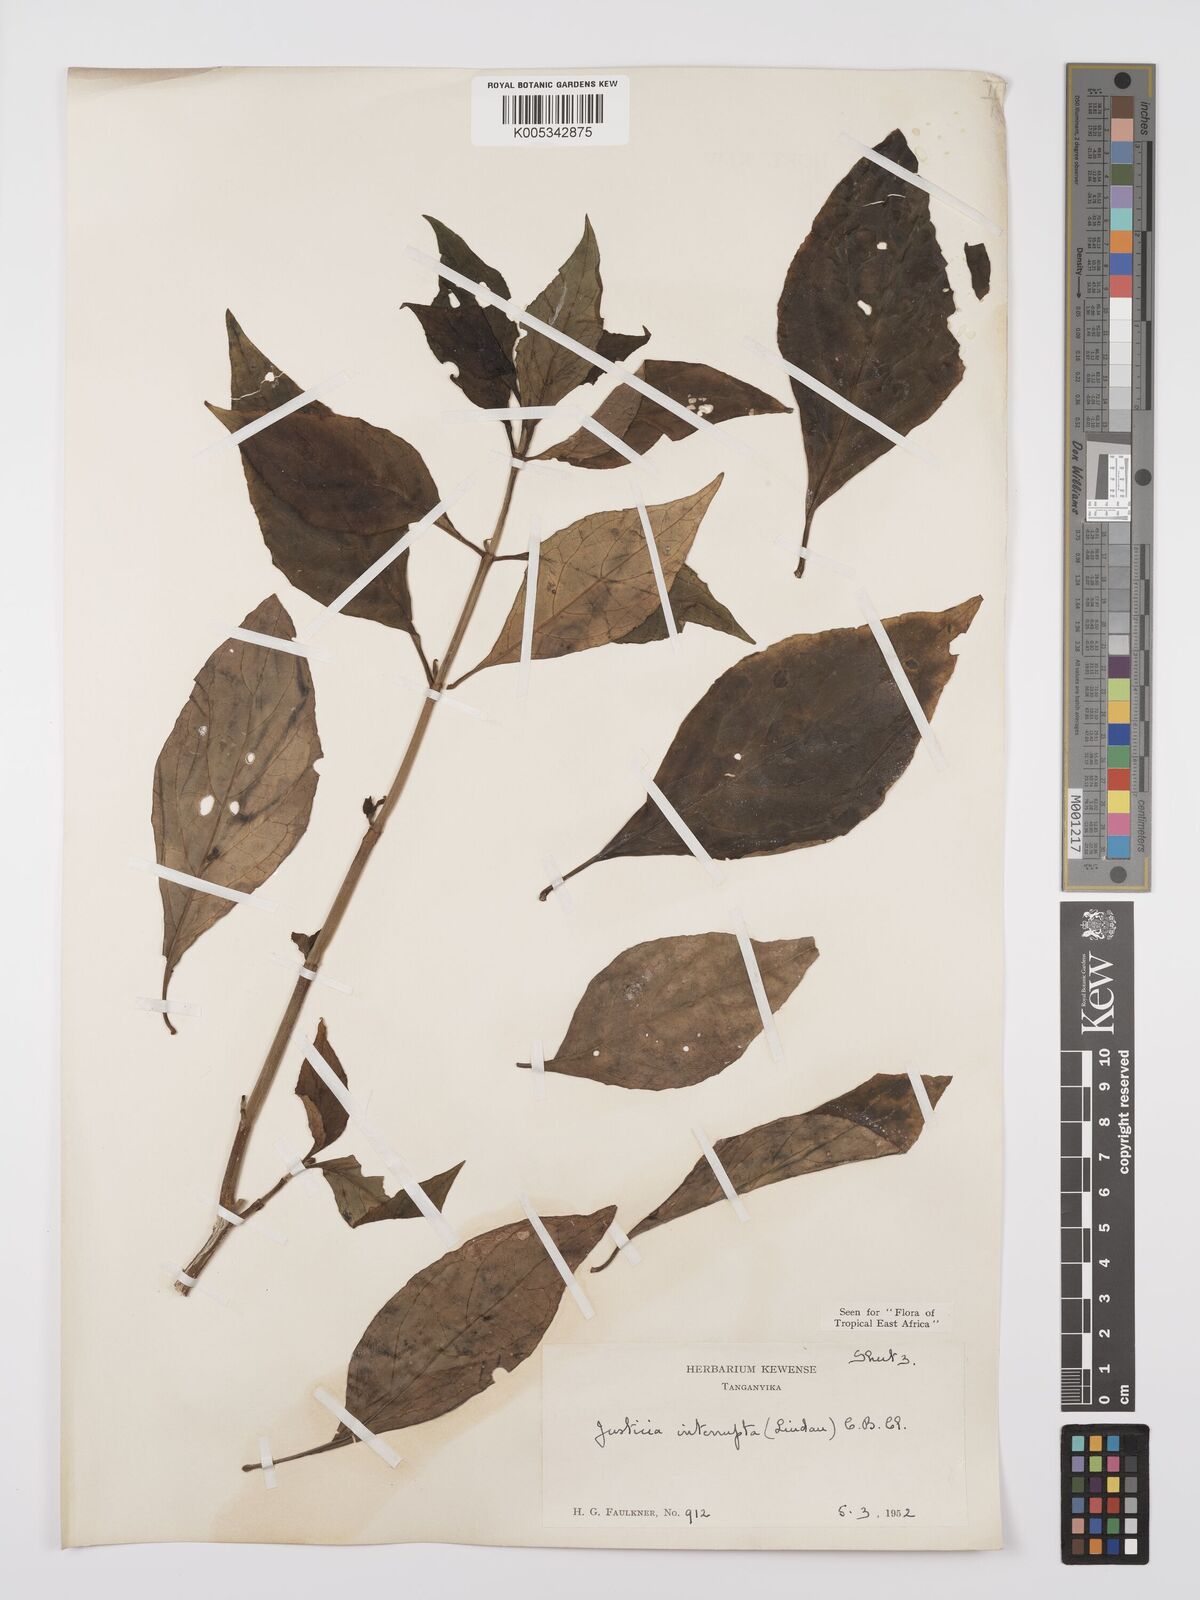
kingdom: Plantae
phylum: Tracheophyta
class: Magnoliopsida
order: Lamiales
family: Acanthaceae
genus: Justicia
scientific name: Justicia plectranthoides
